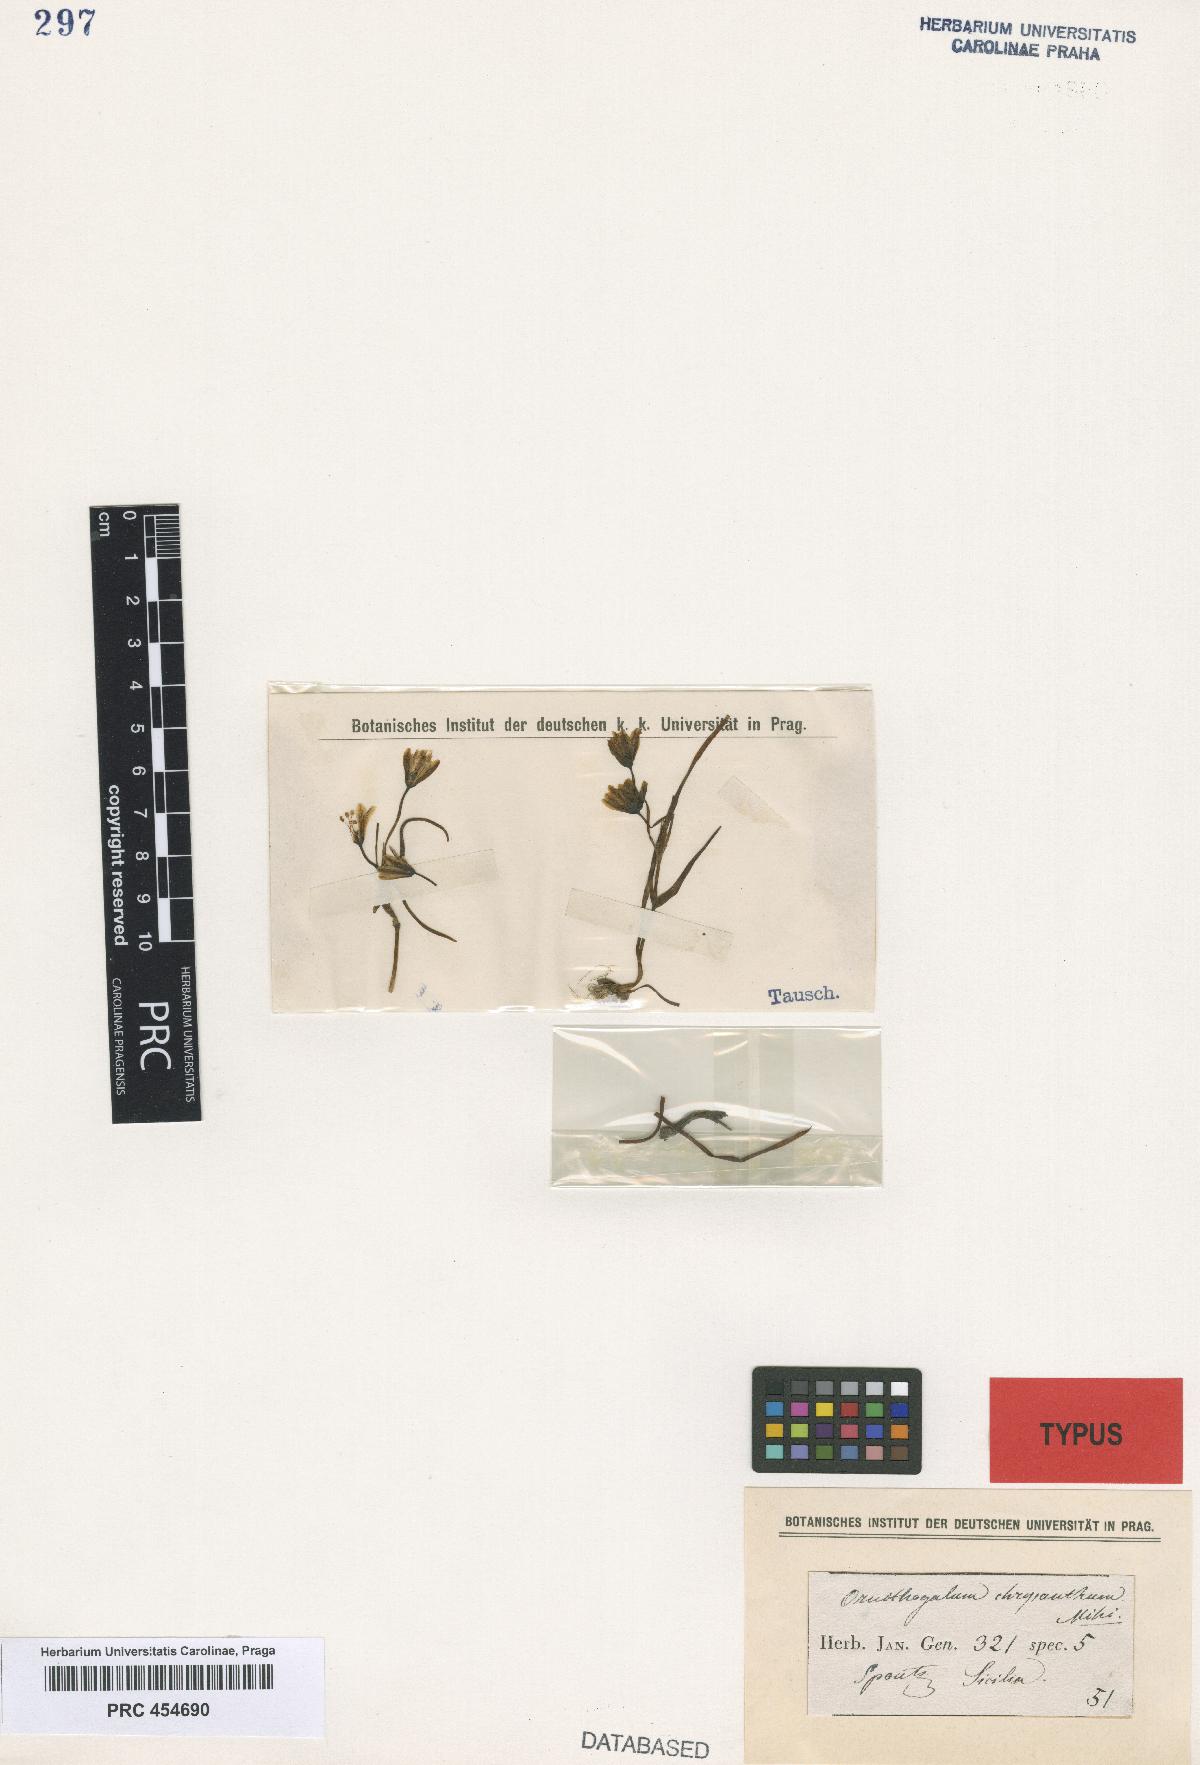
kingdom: Plantae
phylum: Tracheophyta
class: Liliopsida
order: Liliales
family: Liliaceae
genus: Gagea
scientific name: Gagea chrysantha
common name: Golden gagea
